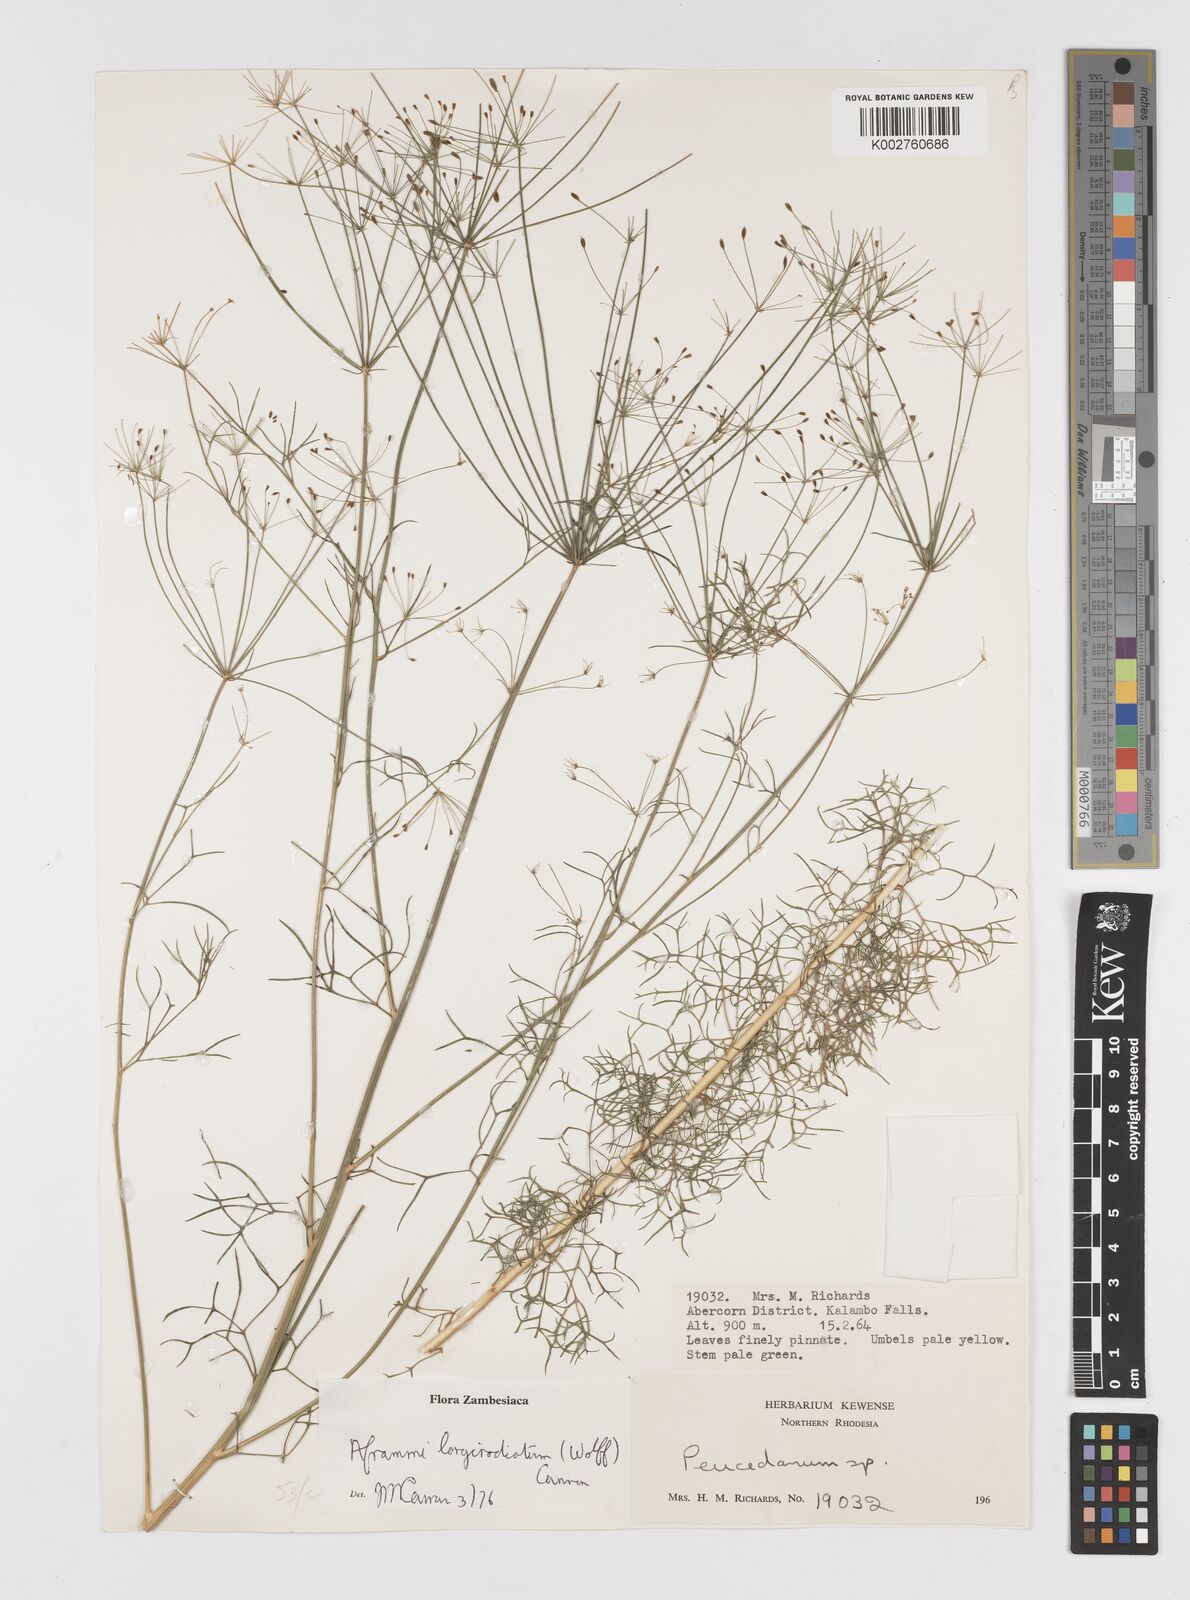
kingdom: Plantae
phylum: Tracheophyta
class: Magnoliopsida
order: Apiales
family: Apiaceae
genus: Physotrichia
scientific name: Physotrichia longiradiatum
